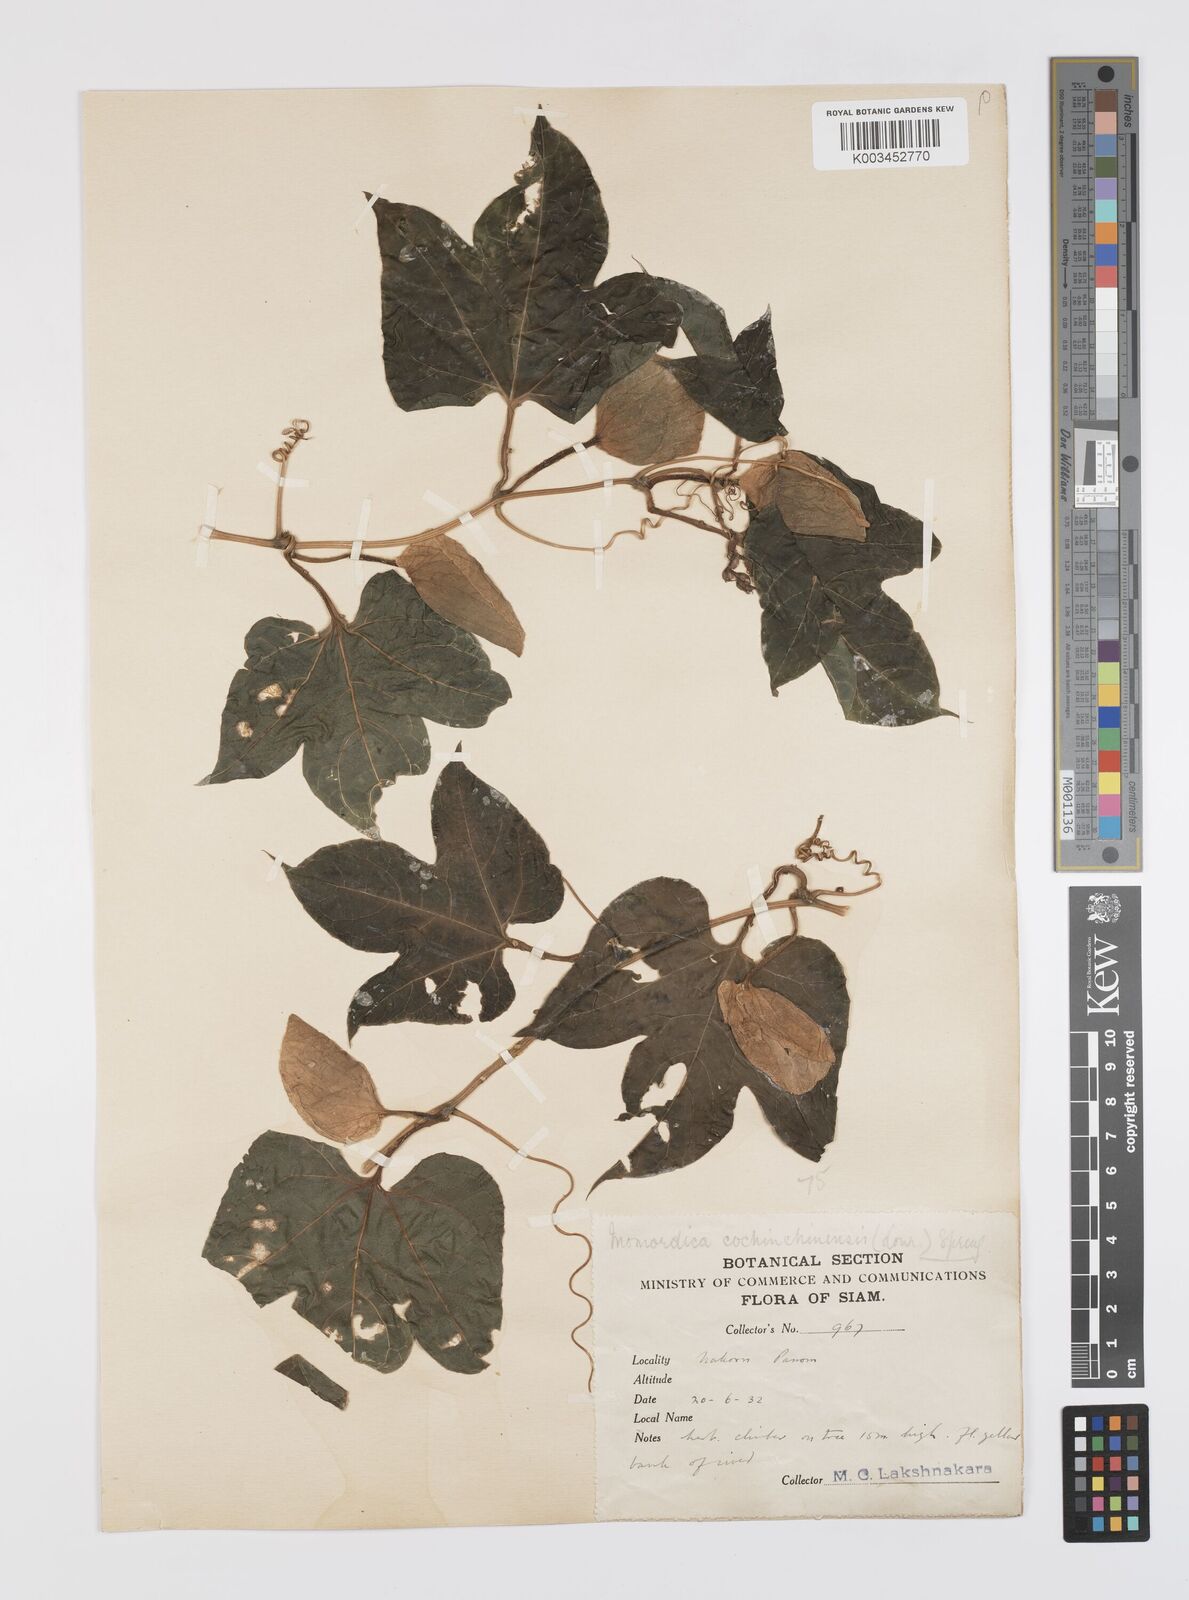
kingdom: Plantae
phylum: Tracheophyta
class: Magnoliopsida
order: Cucurbitales
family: Cucurbitaceae
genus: Momordica
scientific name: Momordica cochinchinensis
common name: Chinese bitter-cucumber
